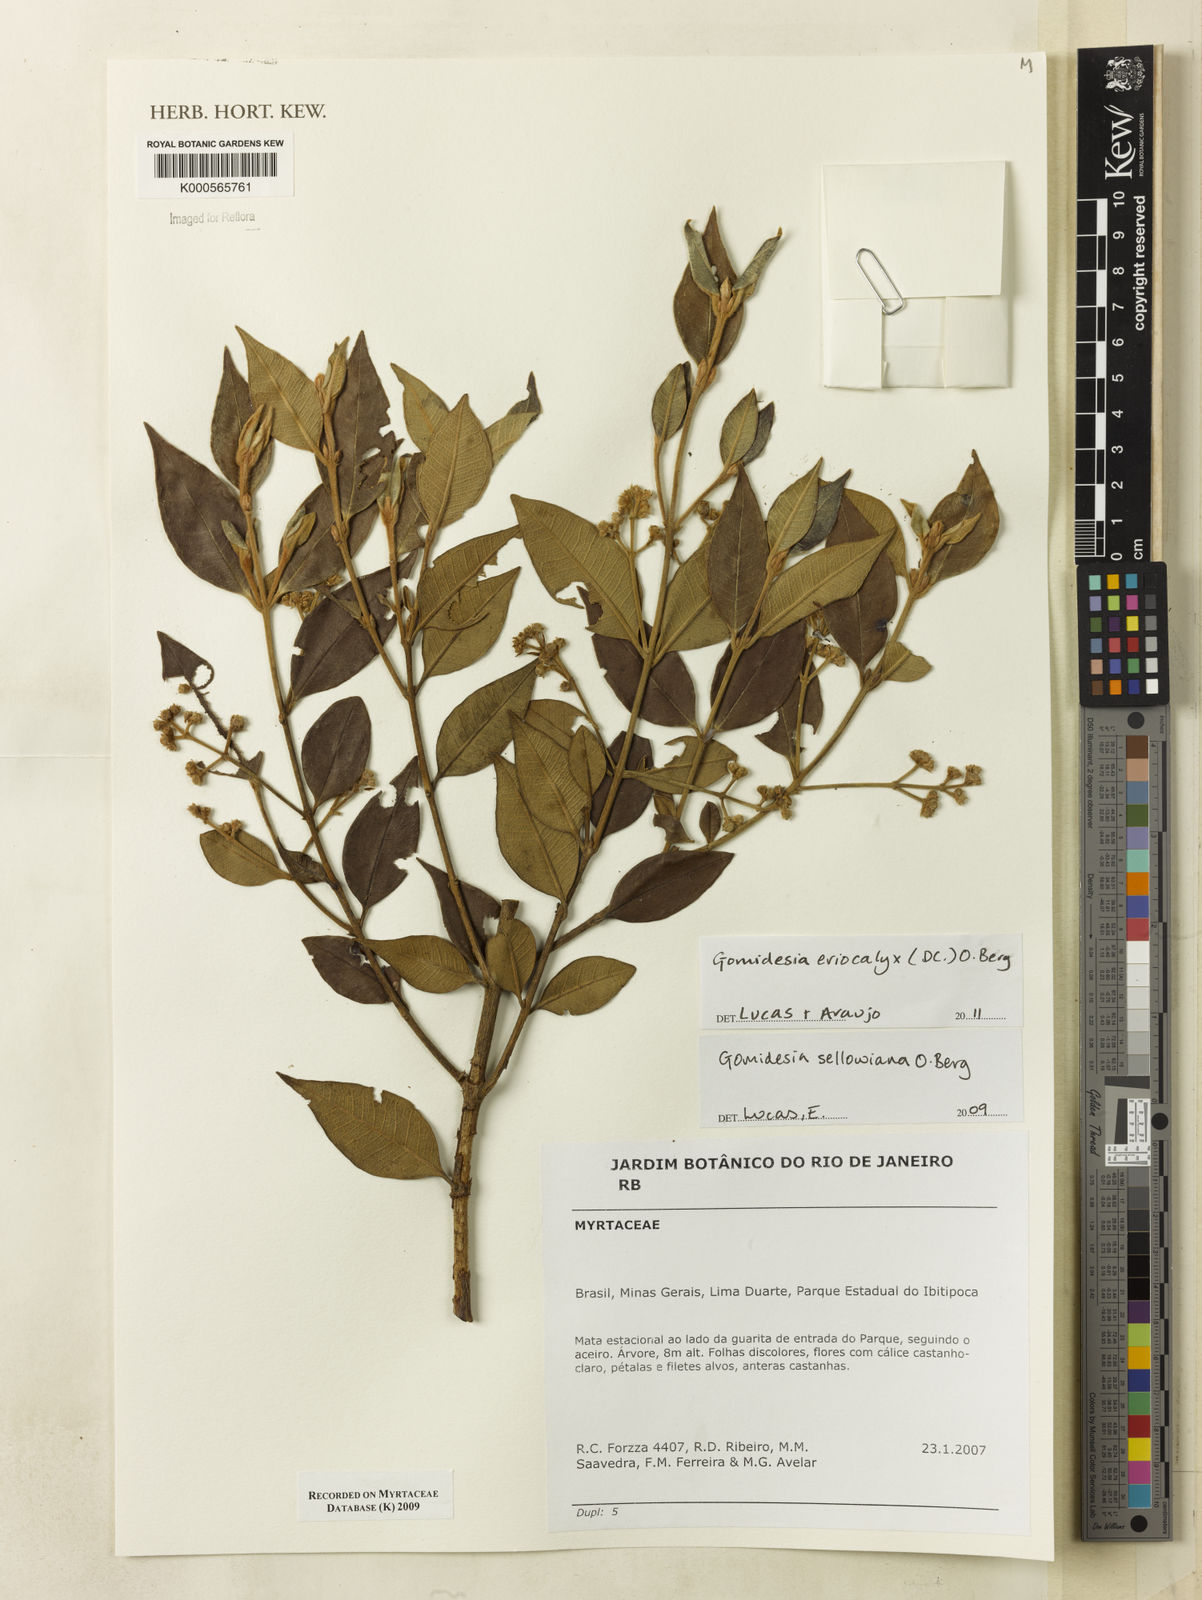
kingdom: Plantae
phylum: Tracheophyta
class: Magnoliopsida
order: Myrtales
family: Myrtaceae
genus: Myrcia
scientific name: Myrcia eriocalyx
